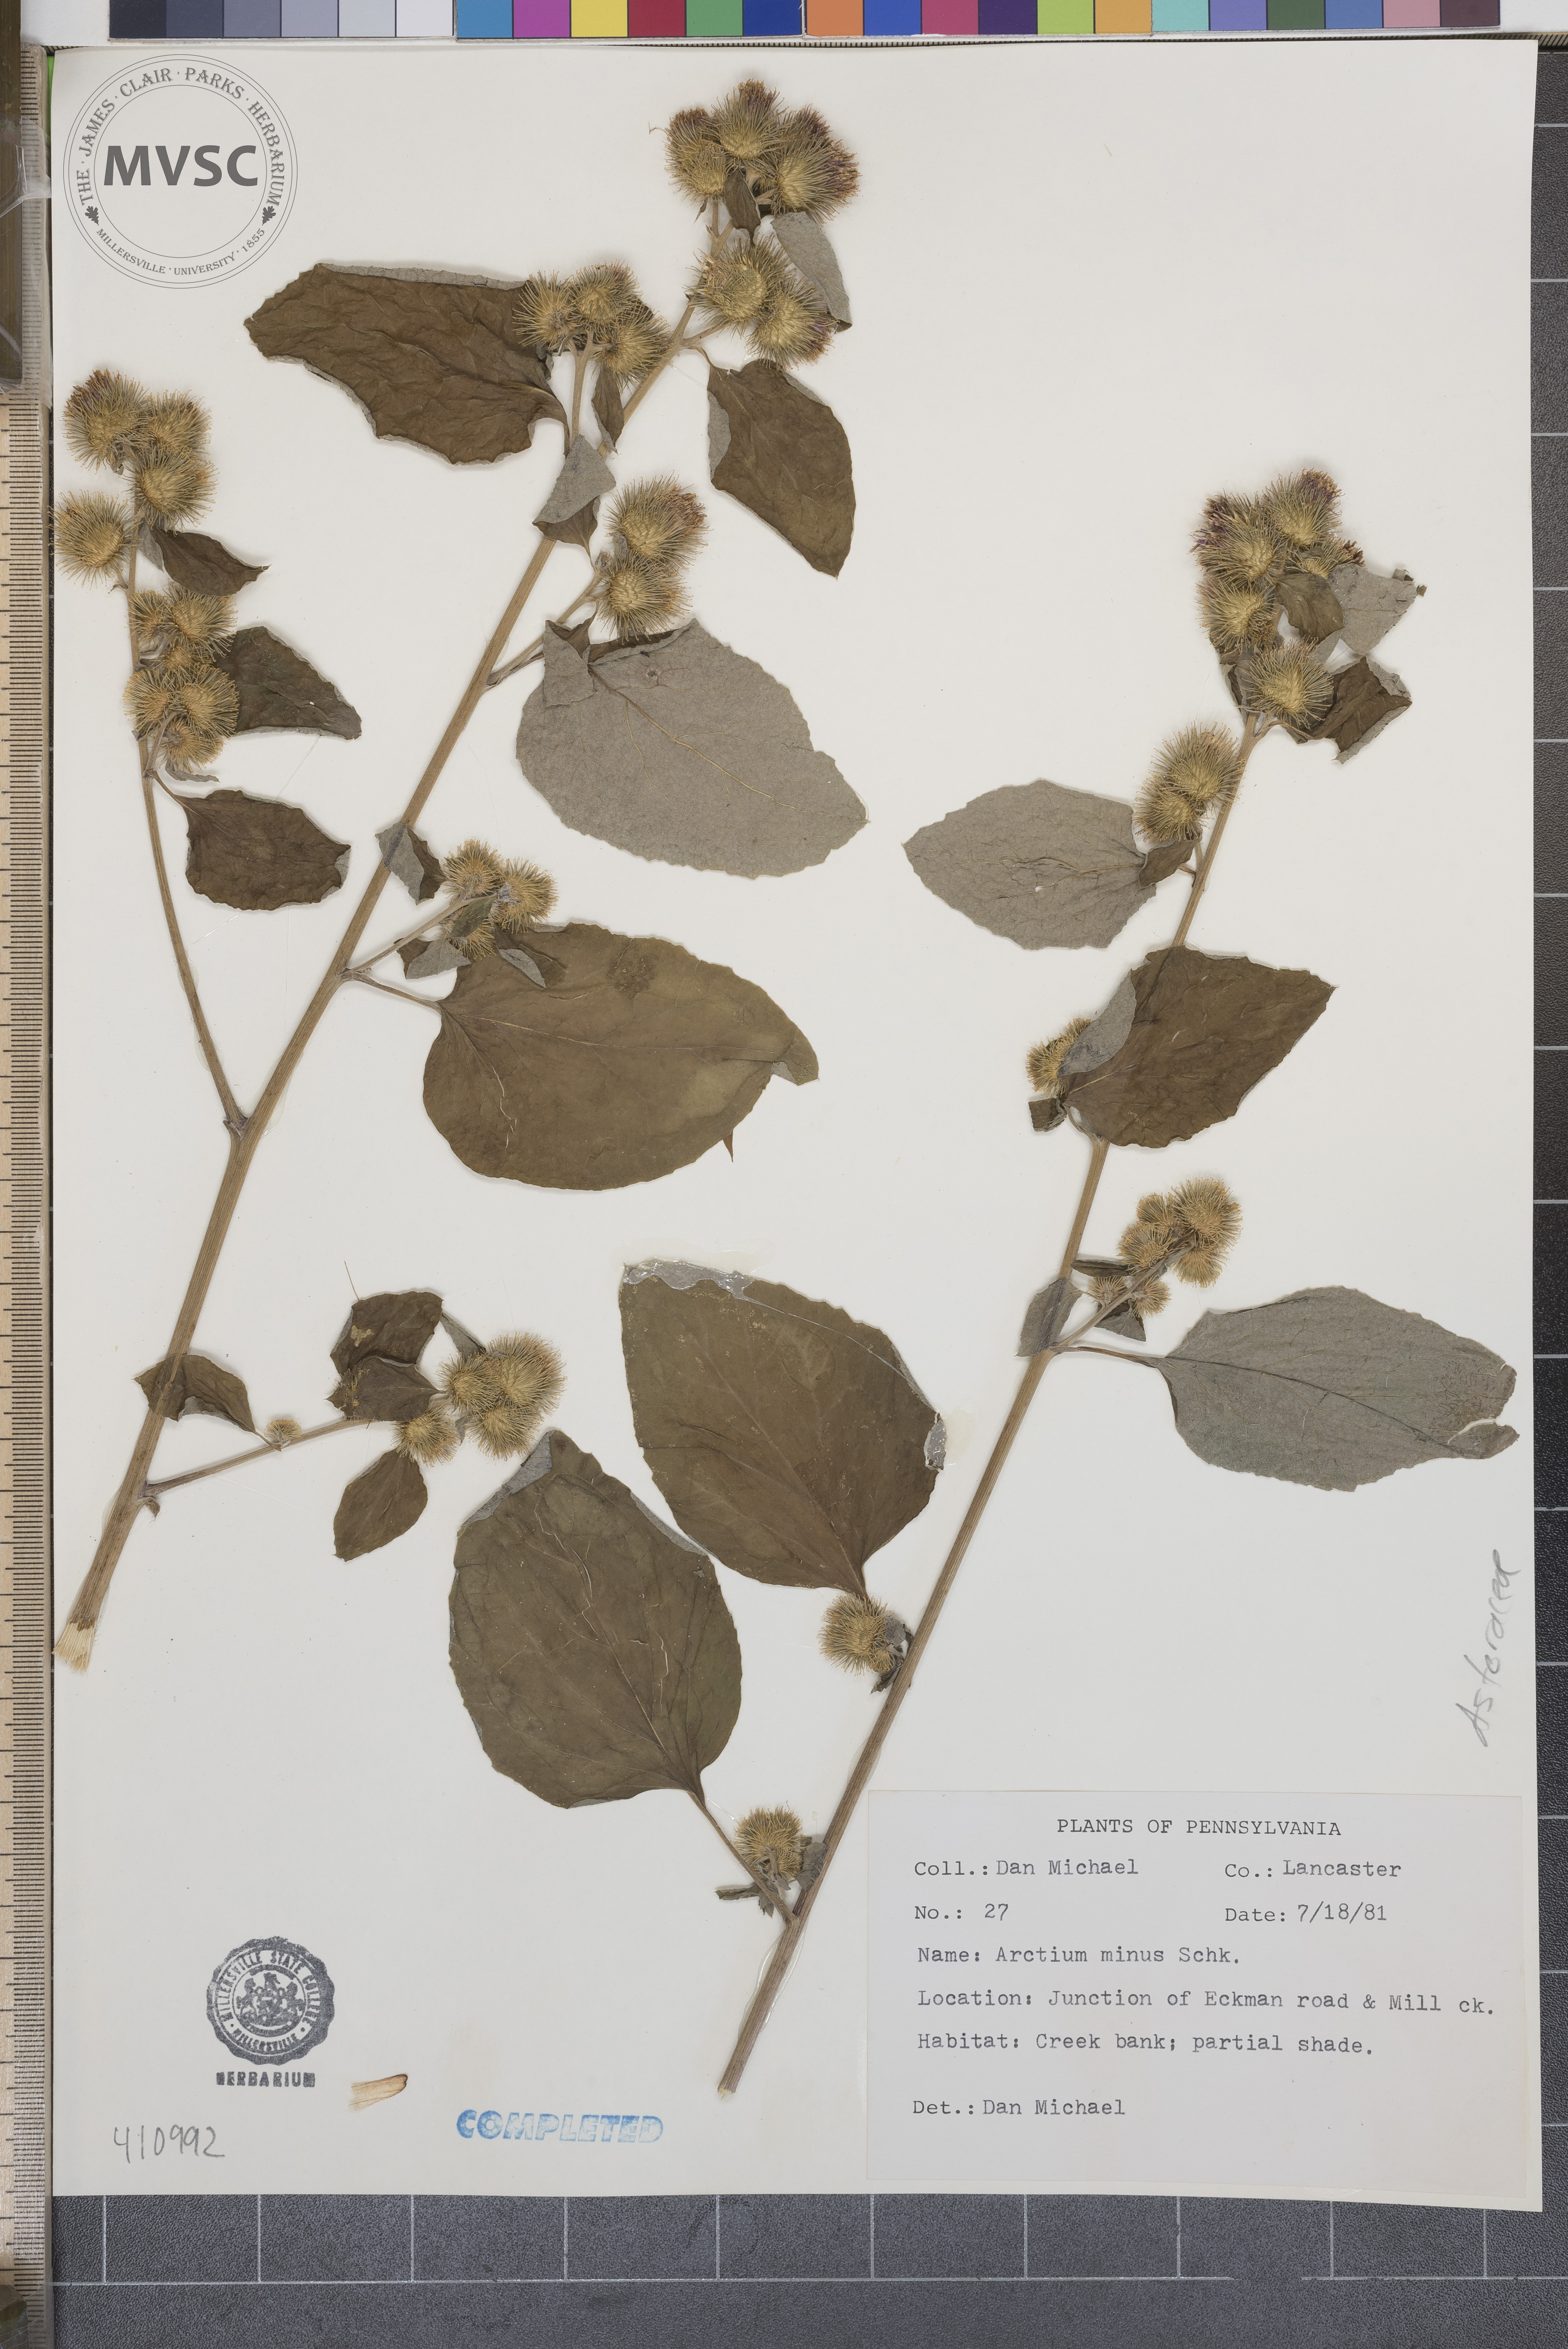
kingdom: Plantae
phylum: Tracheophyta
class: Magnoliopsida
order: Asterales
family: Asteraceae
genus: Arctium
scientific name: Arctium minus
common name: Lesser burdock
